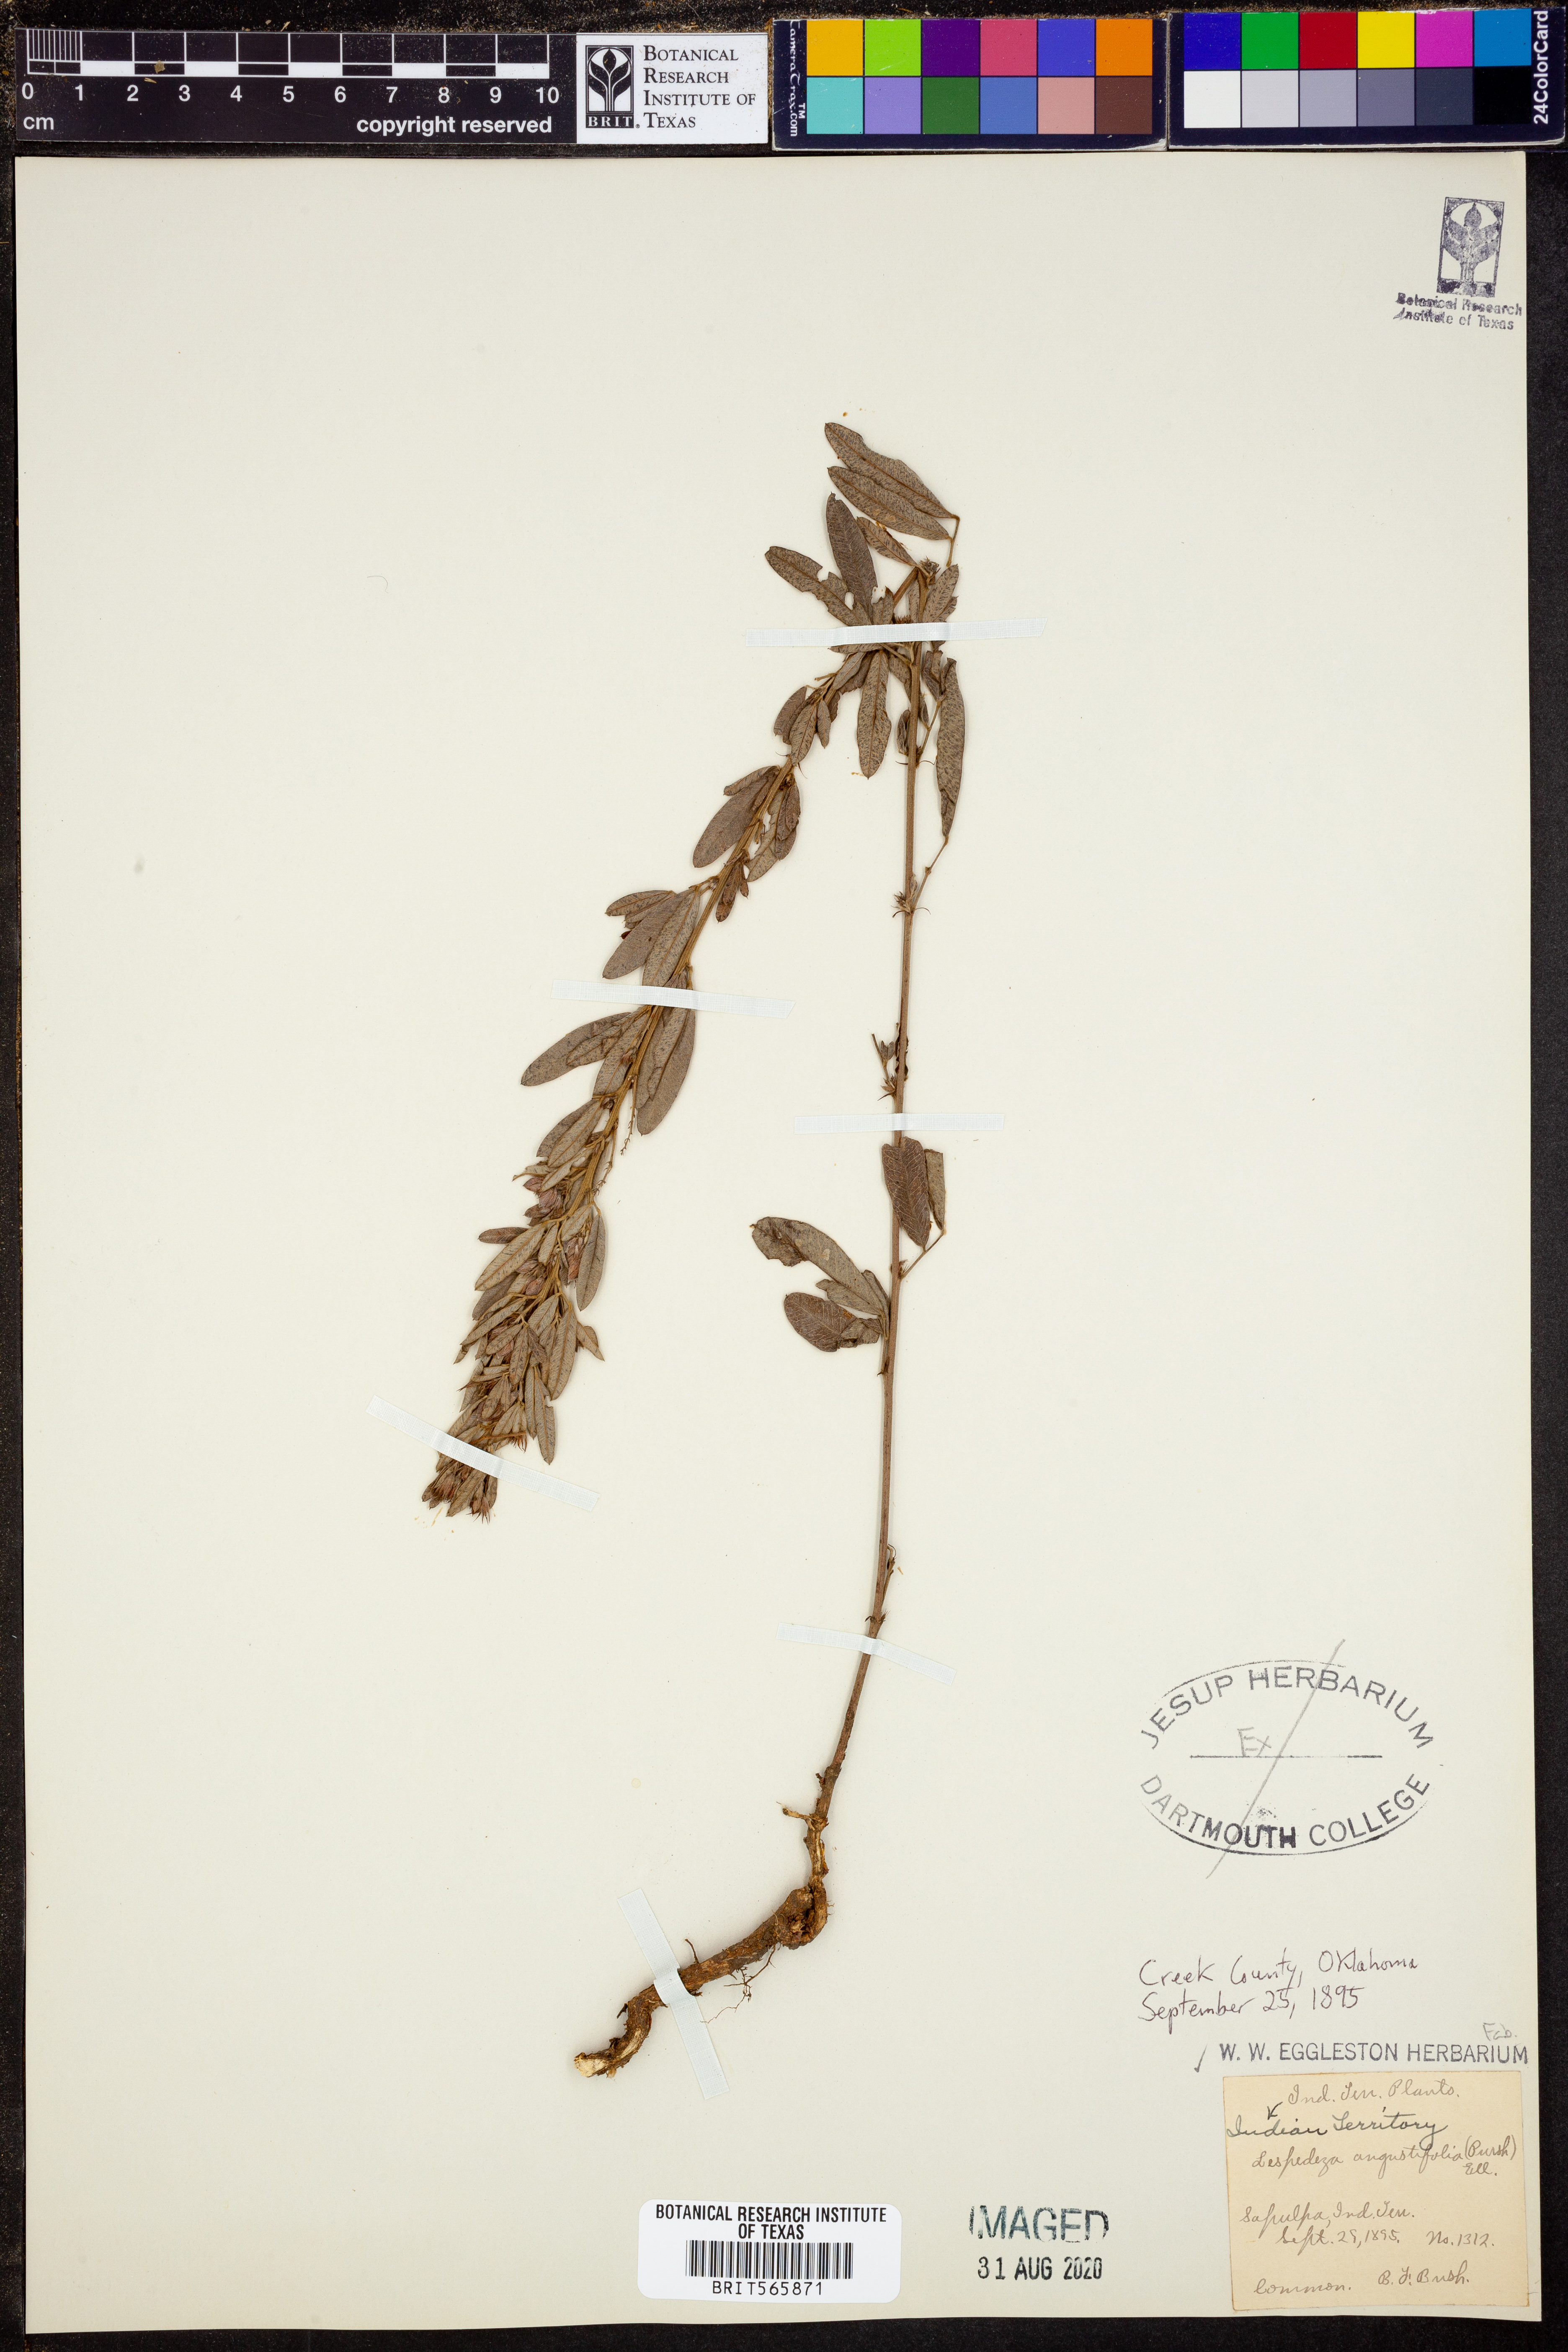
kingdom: Plantae
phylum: Tracheophyta
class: Magnoliopsida
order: Fabales
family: Fabaceae
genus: Lespedeza
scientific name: Lespedeza angustifolia
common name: Narrow-leaf bush-clover
